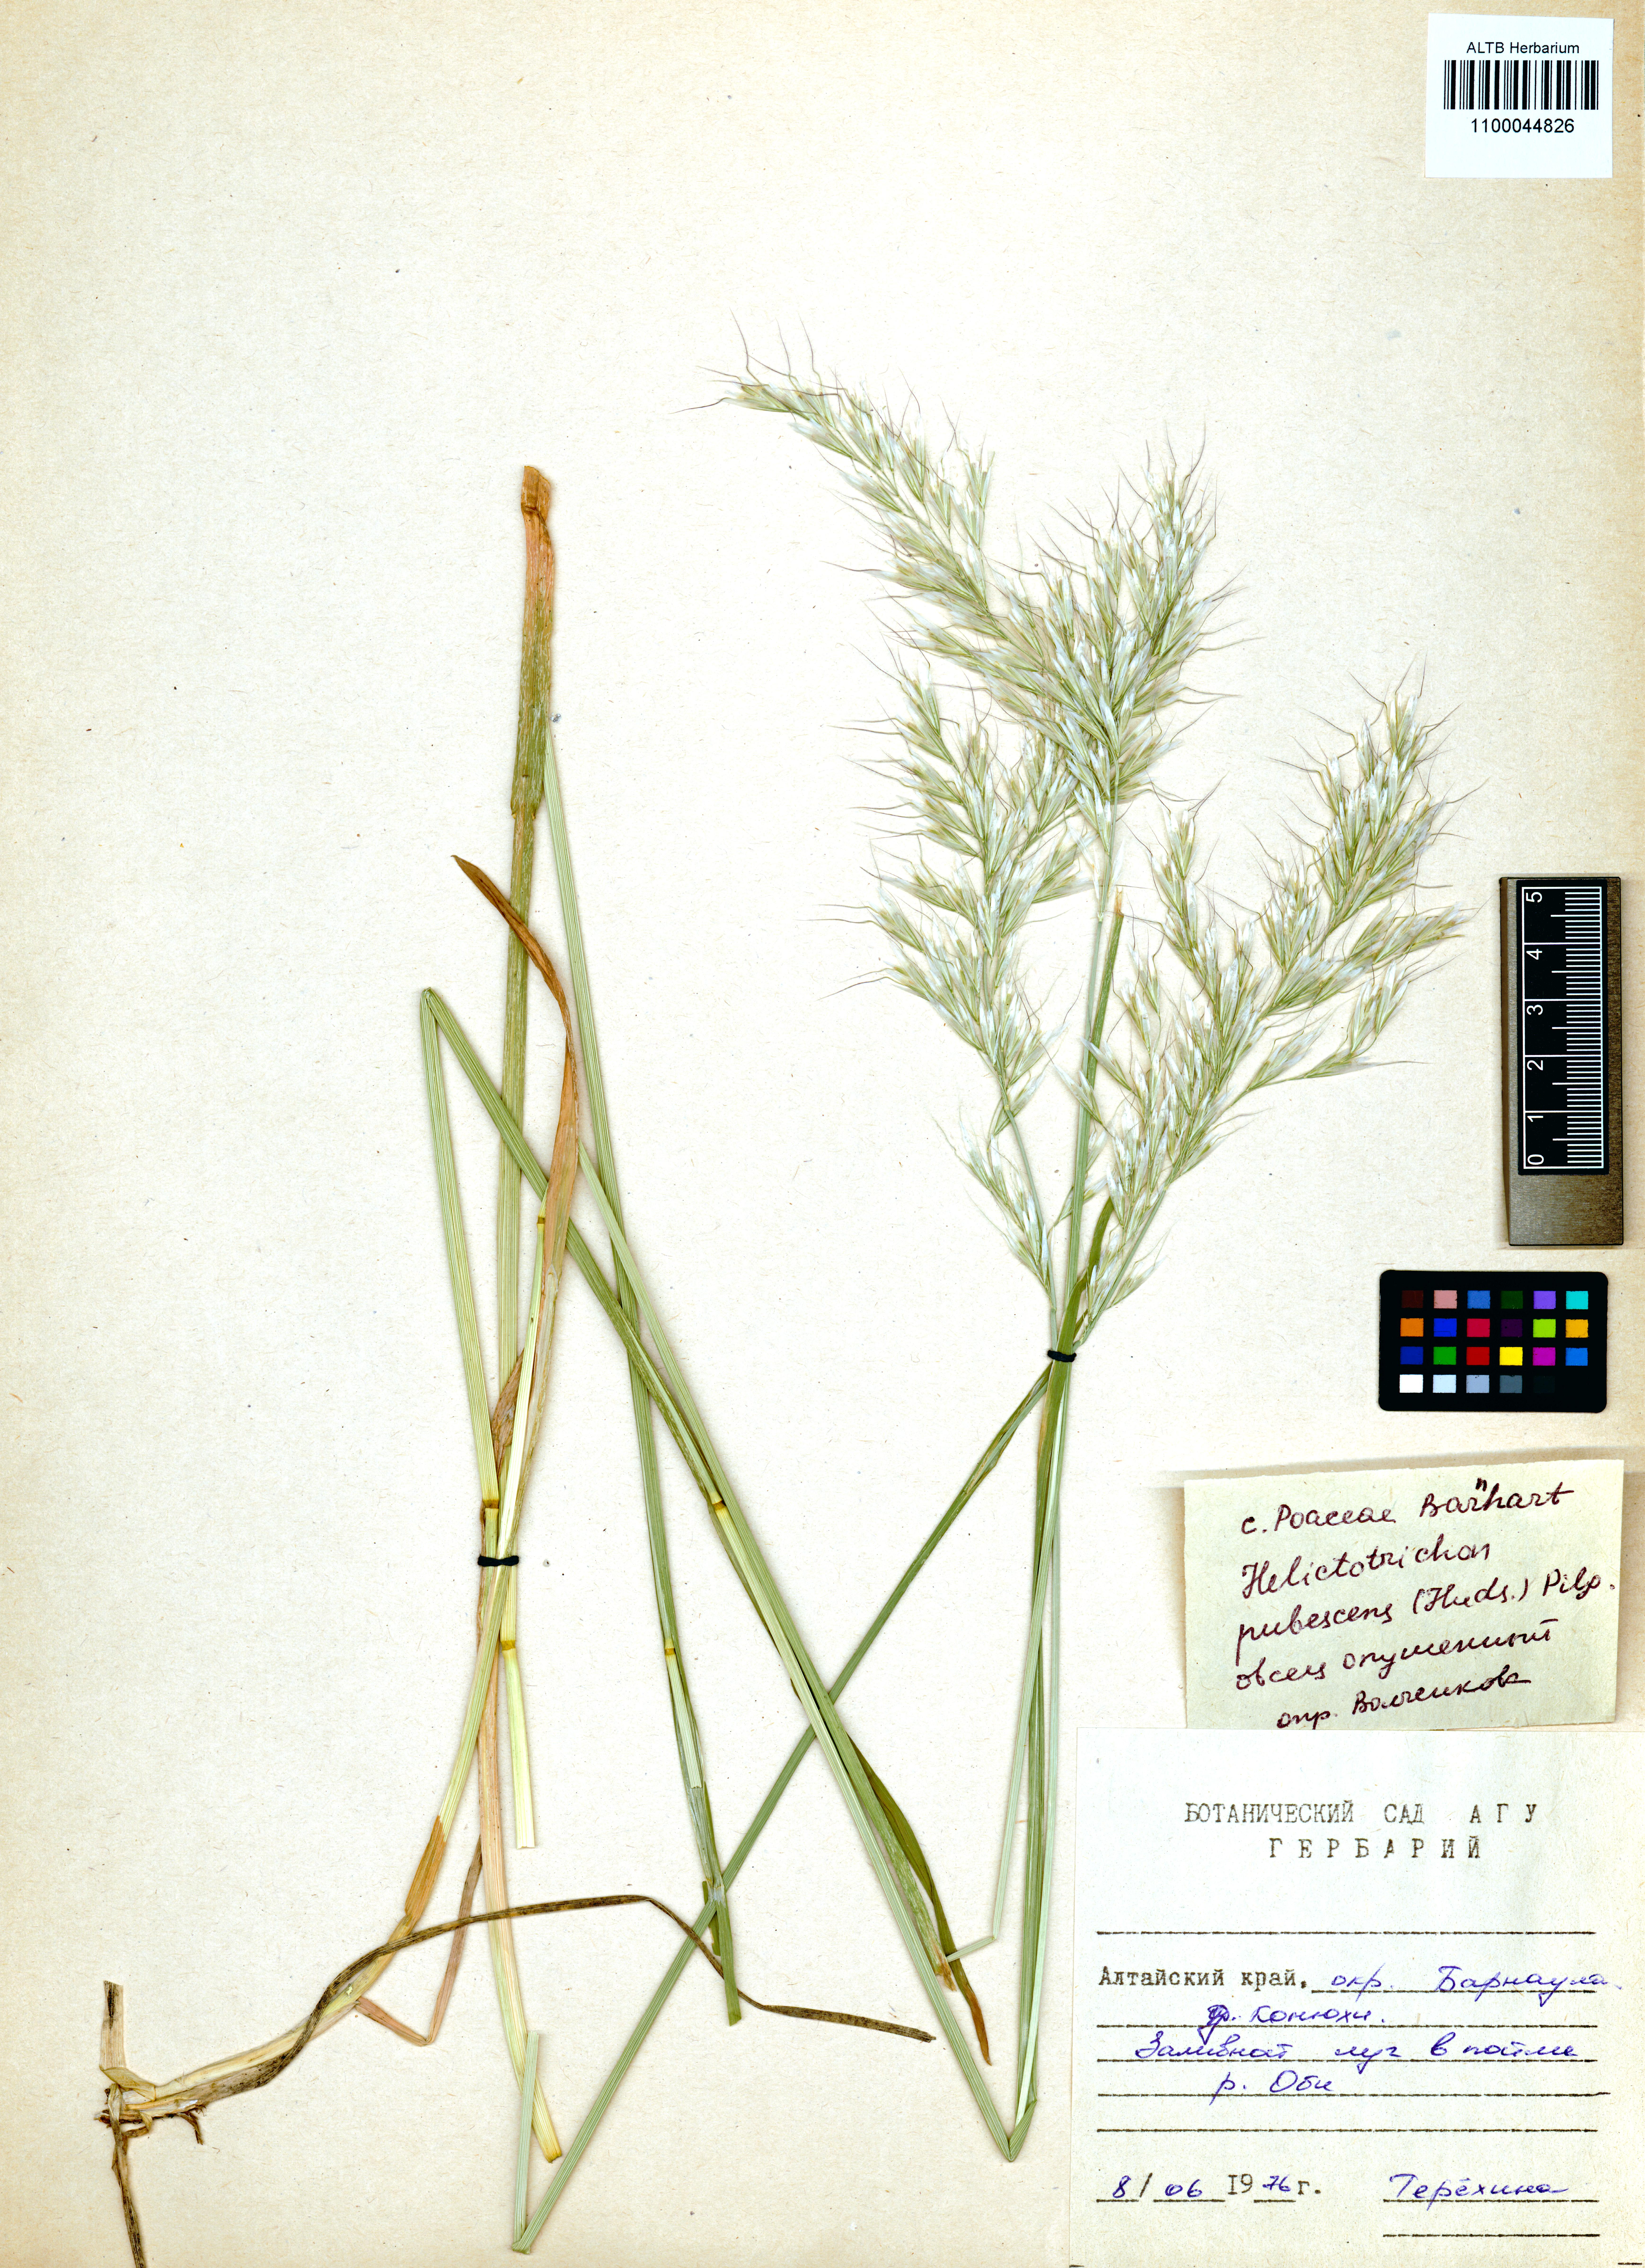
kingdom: Plantae
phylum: Tracheophyta
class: Liliopsida
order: Poales
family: Poaceae
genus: Avenula
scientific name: Avenula pubescens
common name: Downy alpine oatgrass
